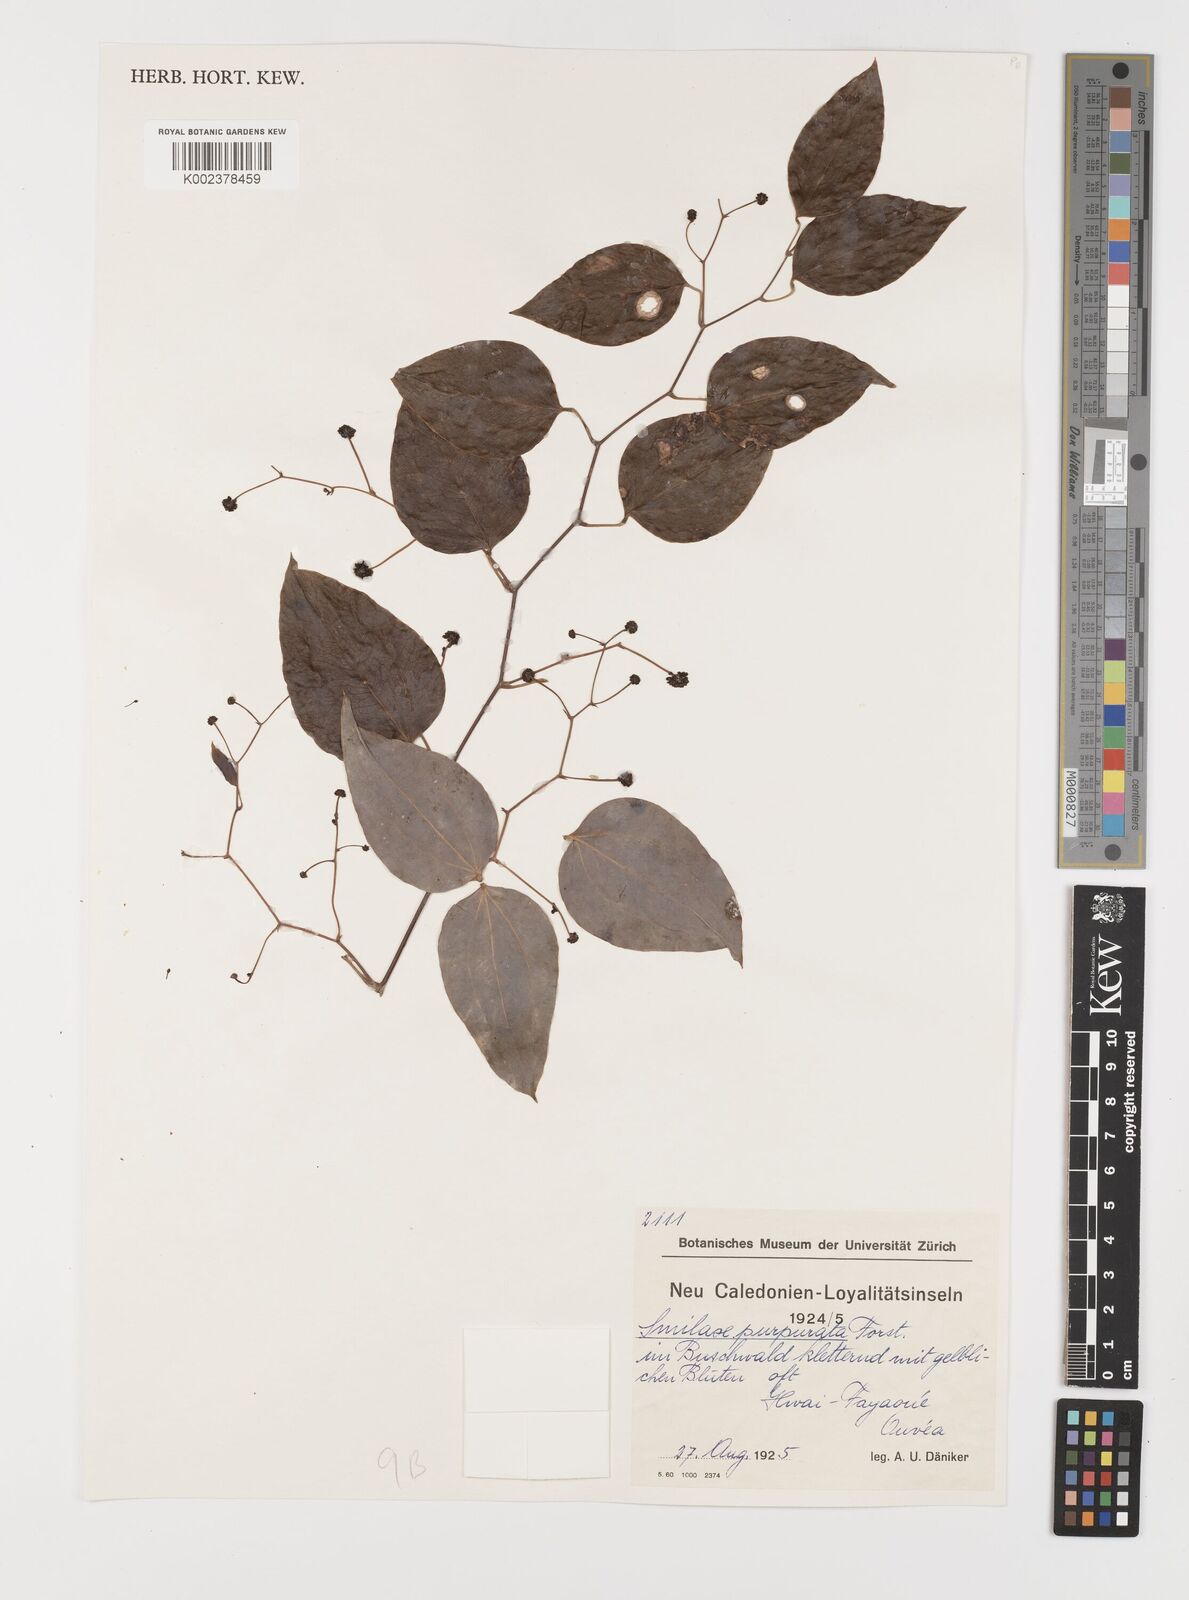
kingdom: Plantae
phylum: Tracheophyta
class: Liliopsida
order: Liliales
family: Smilacaceae
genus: Smilax
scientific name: Smilax purpurata
